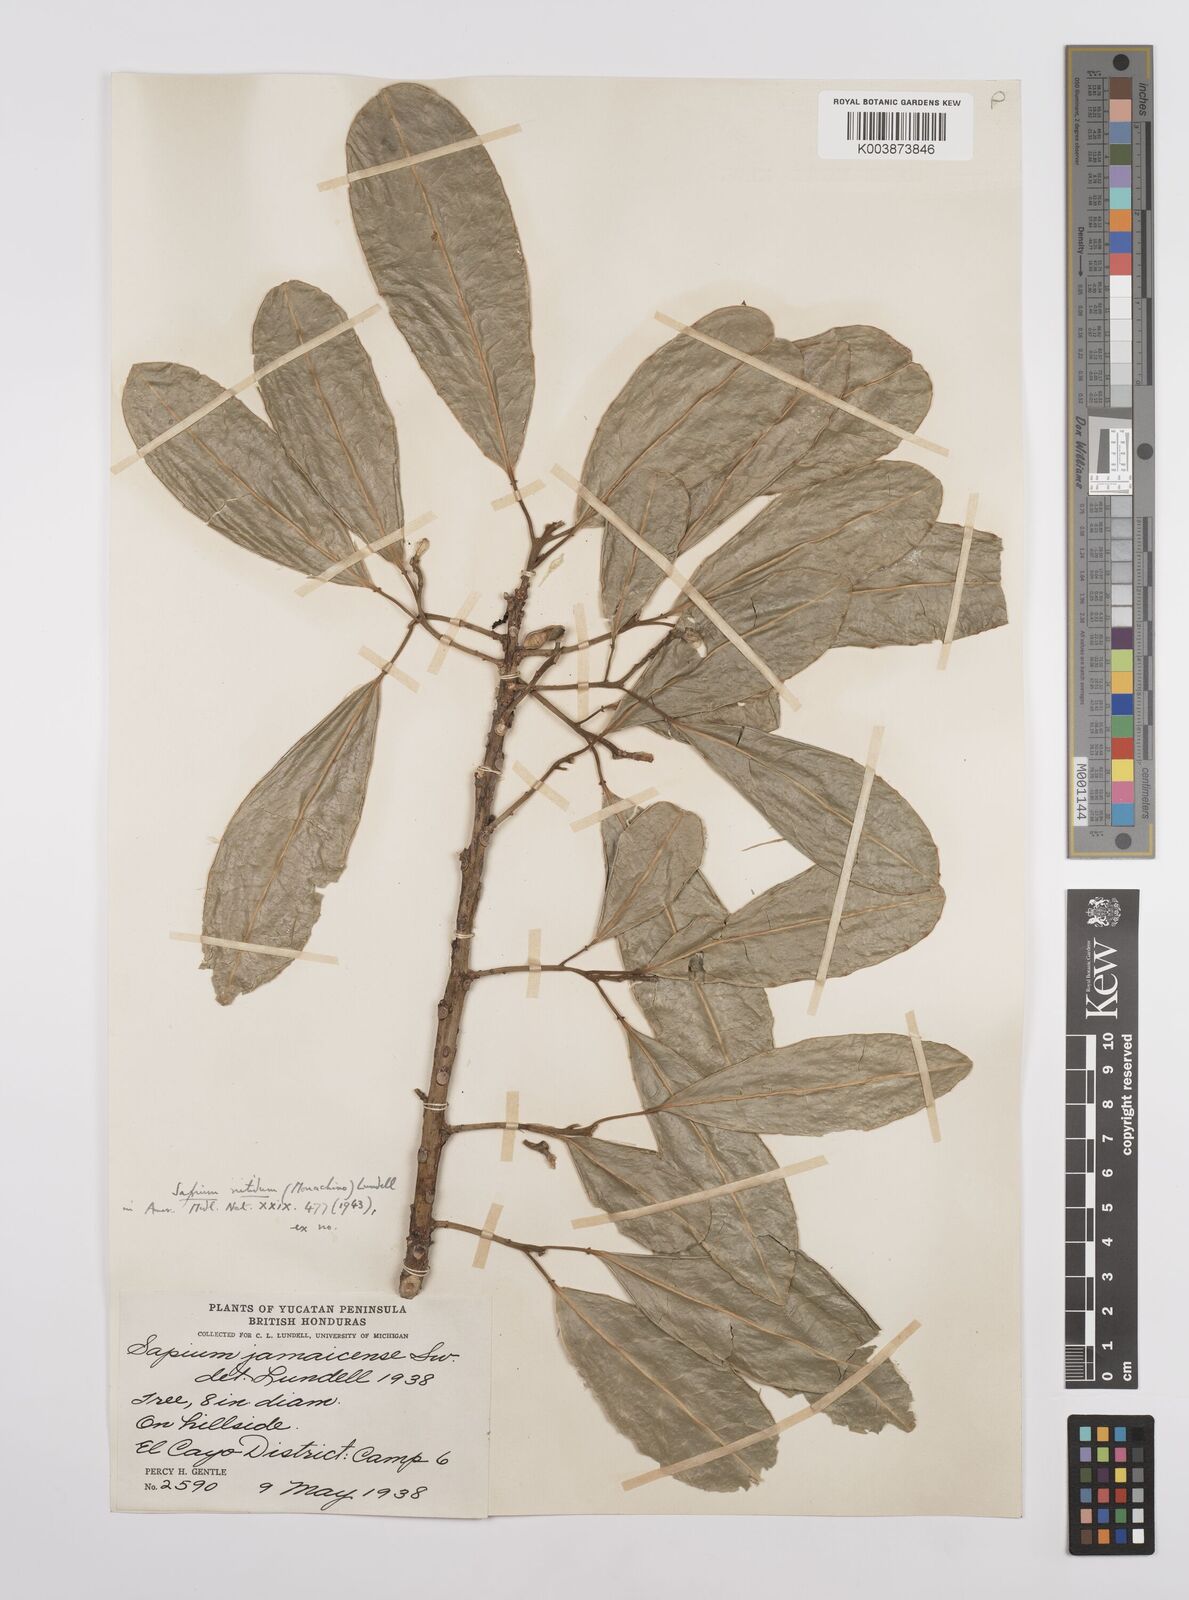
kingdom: Plantae
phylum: Tracheophyta
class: Magnoliopsida
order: Malpighiales
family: Euphorbiaceae
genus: Sapium
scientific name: Sapium lateriflorum
